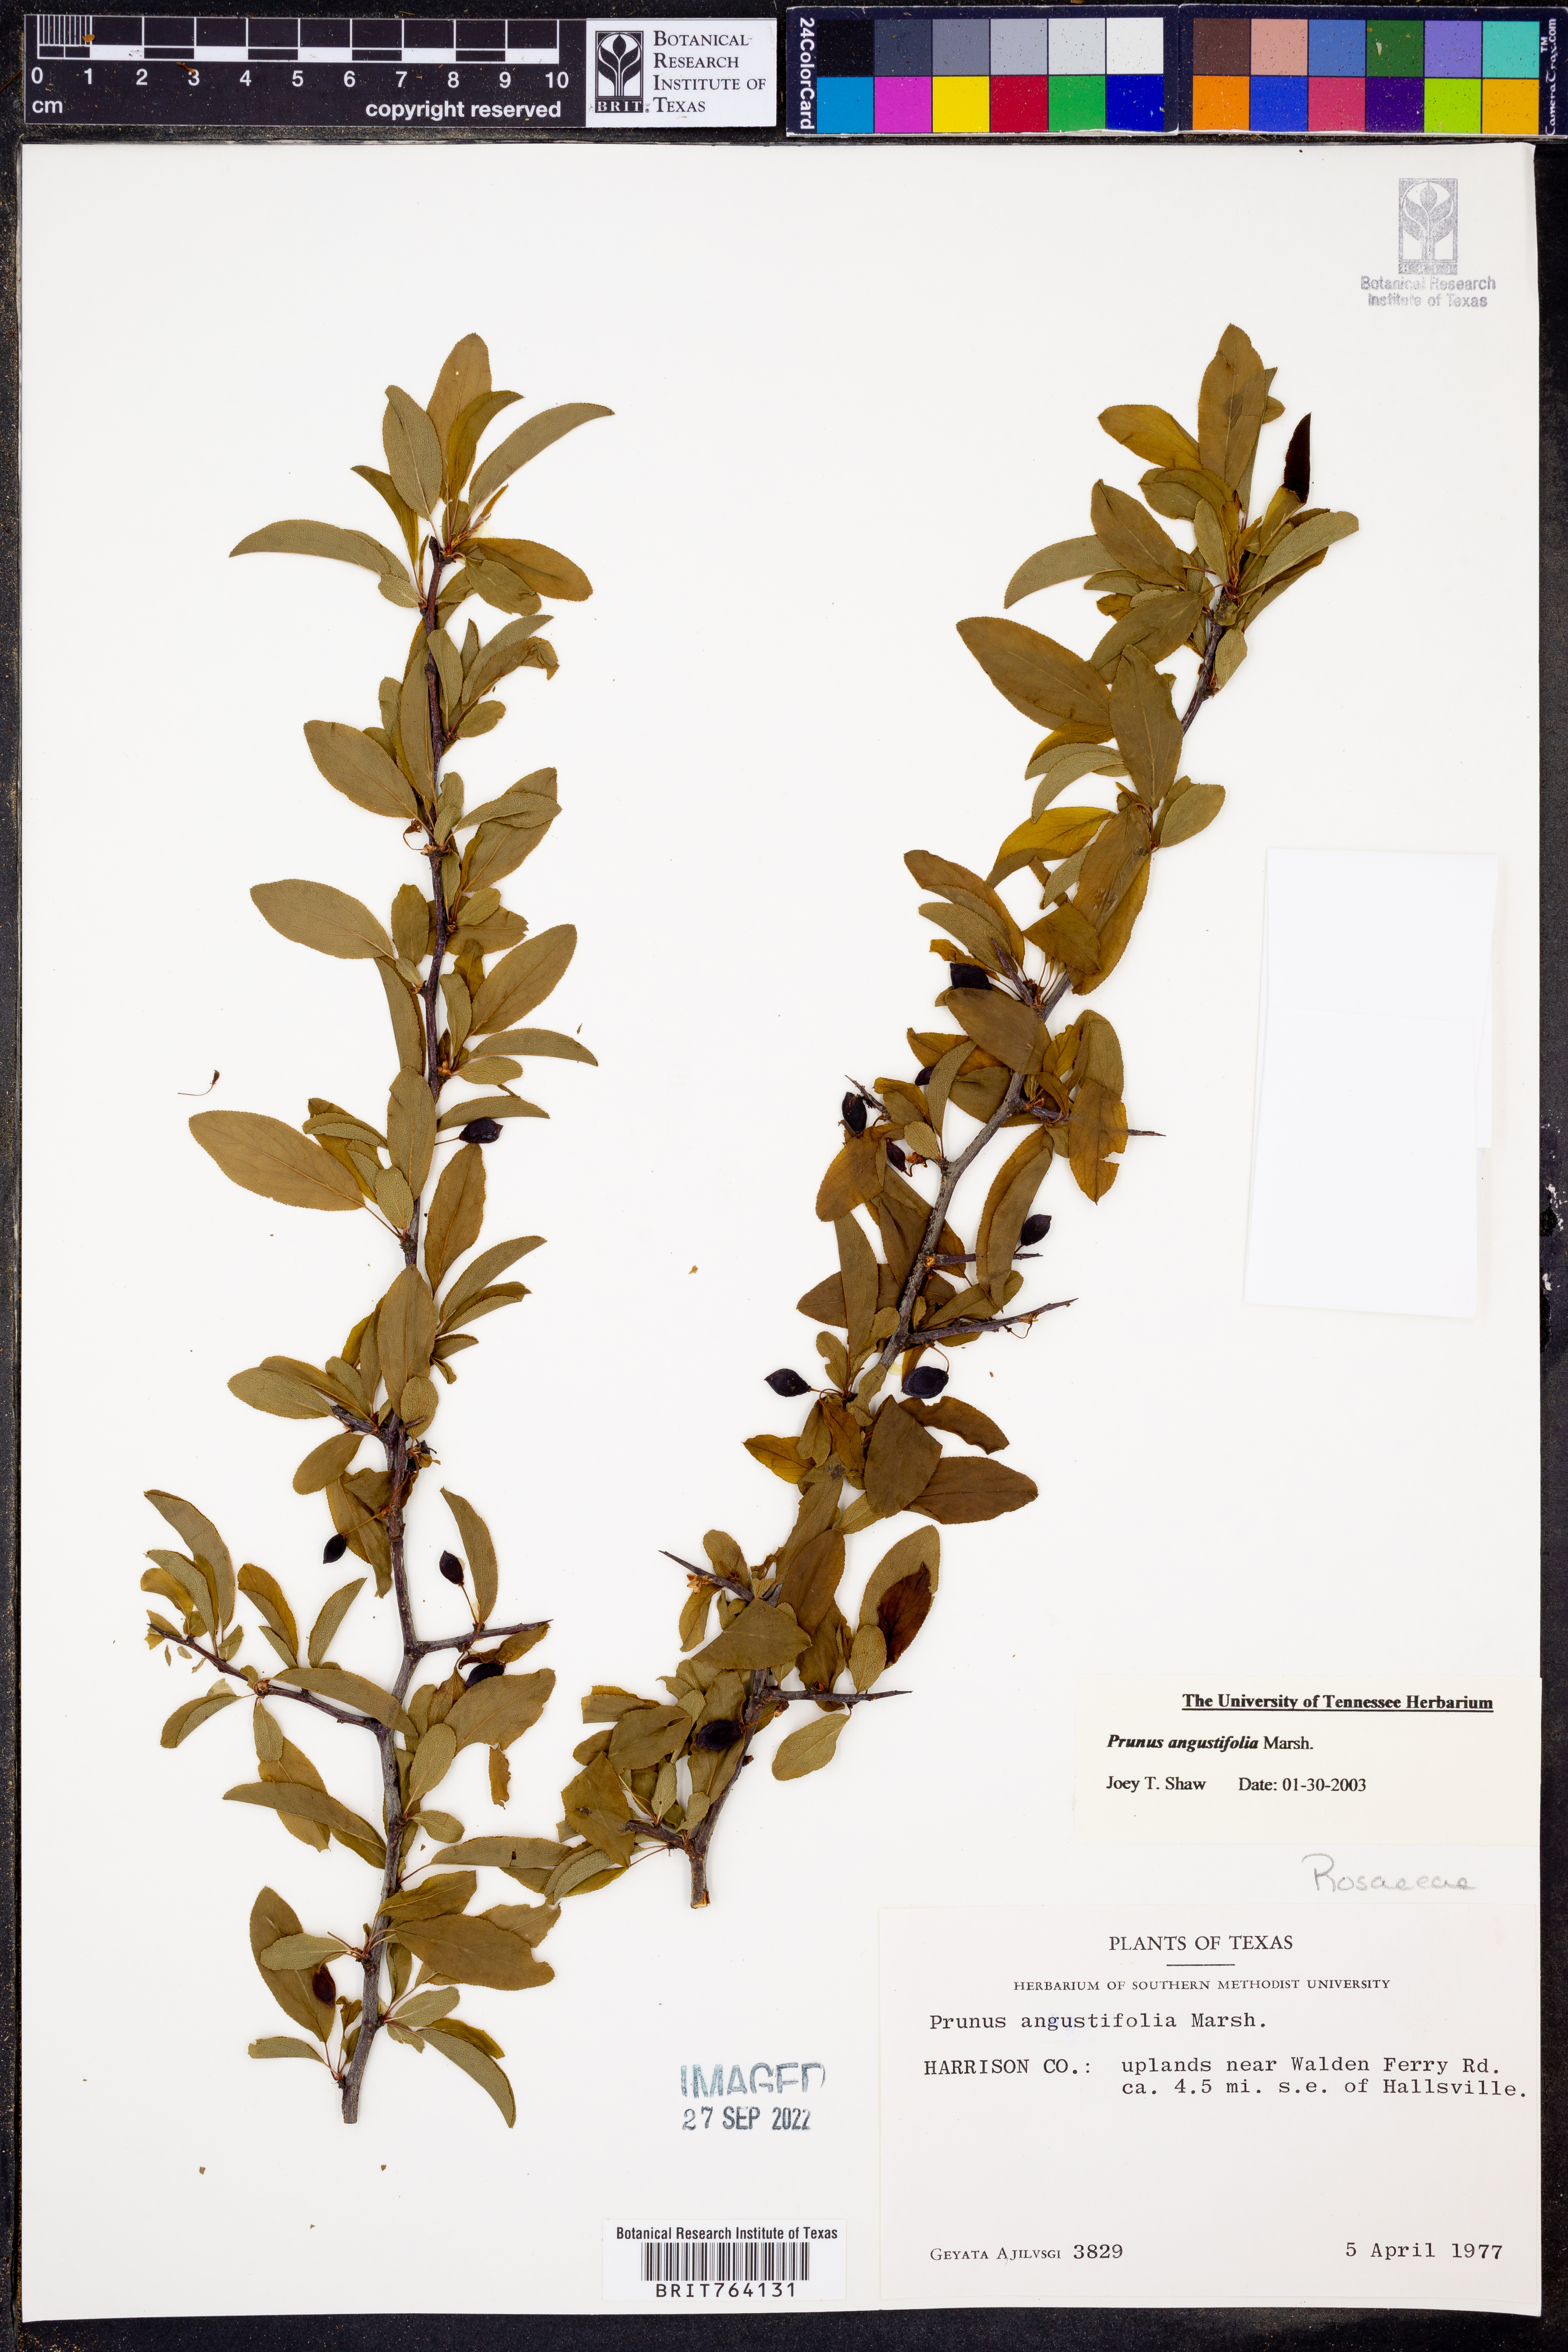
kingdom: Plantae
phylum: Tracheophyta
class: Magnoliopsida
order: Rosales
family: Rosaceae
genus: Prunus
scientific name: Prunus angustifolia
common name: Cherokee plum
